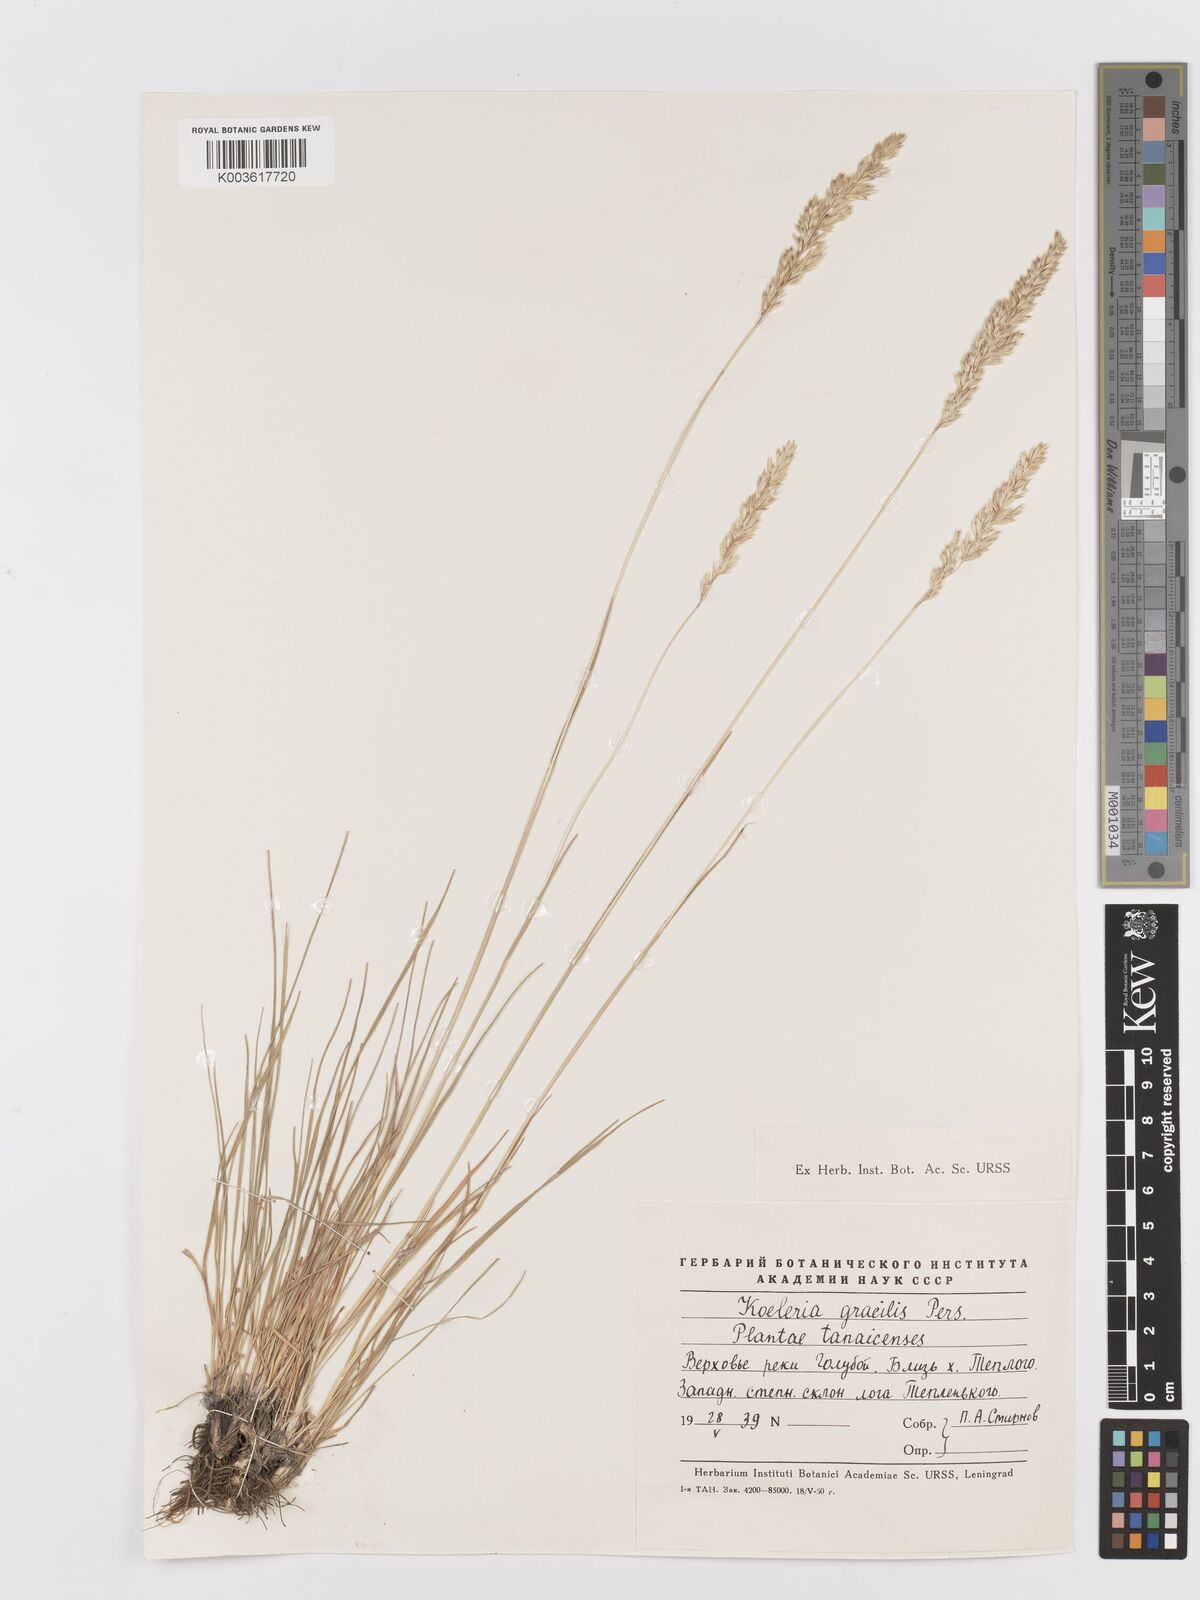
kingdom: Plantae
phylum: Tracheophyta
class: Liliopsida
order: Poales
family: Poaceae
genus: Koeleria
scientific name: Koeleria macrantha
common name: Crested hair-grass
